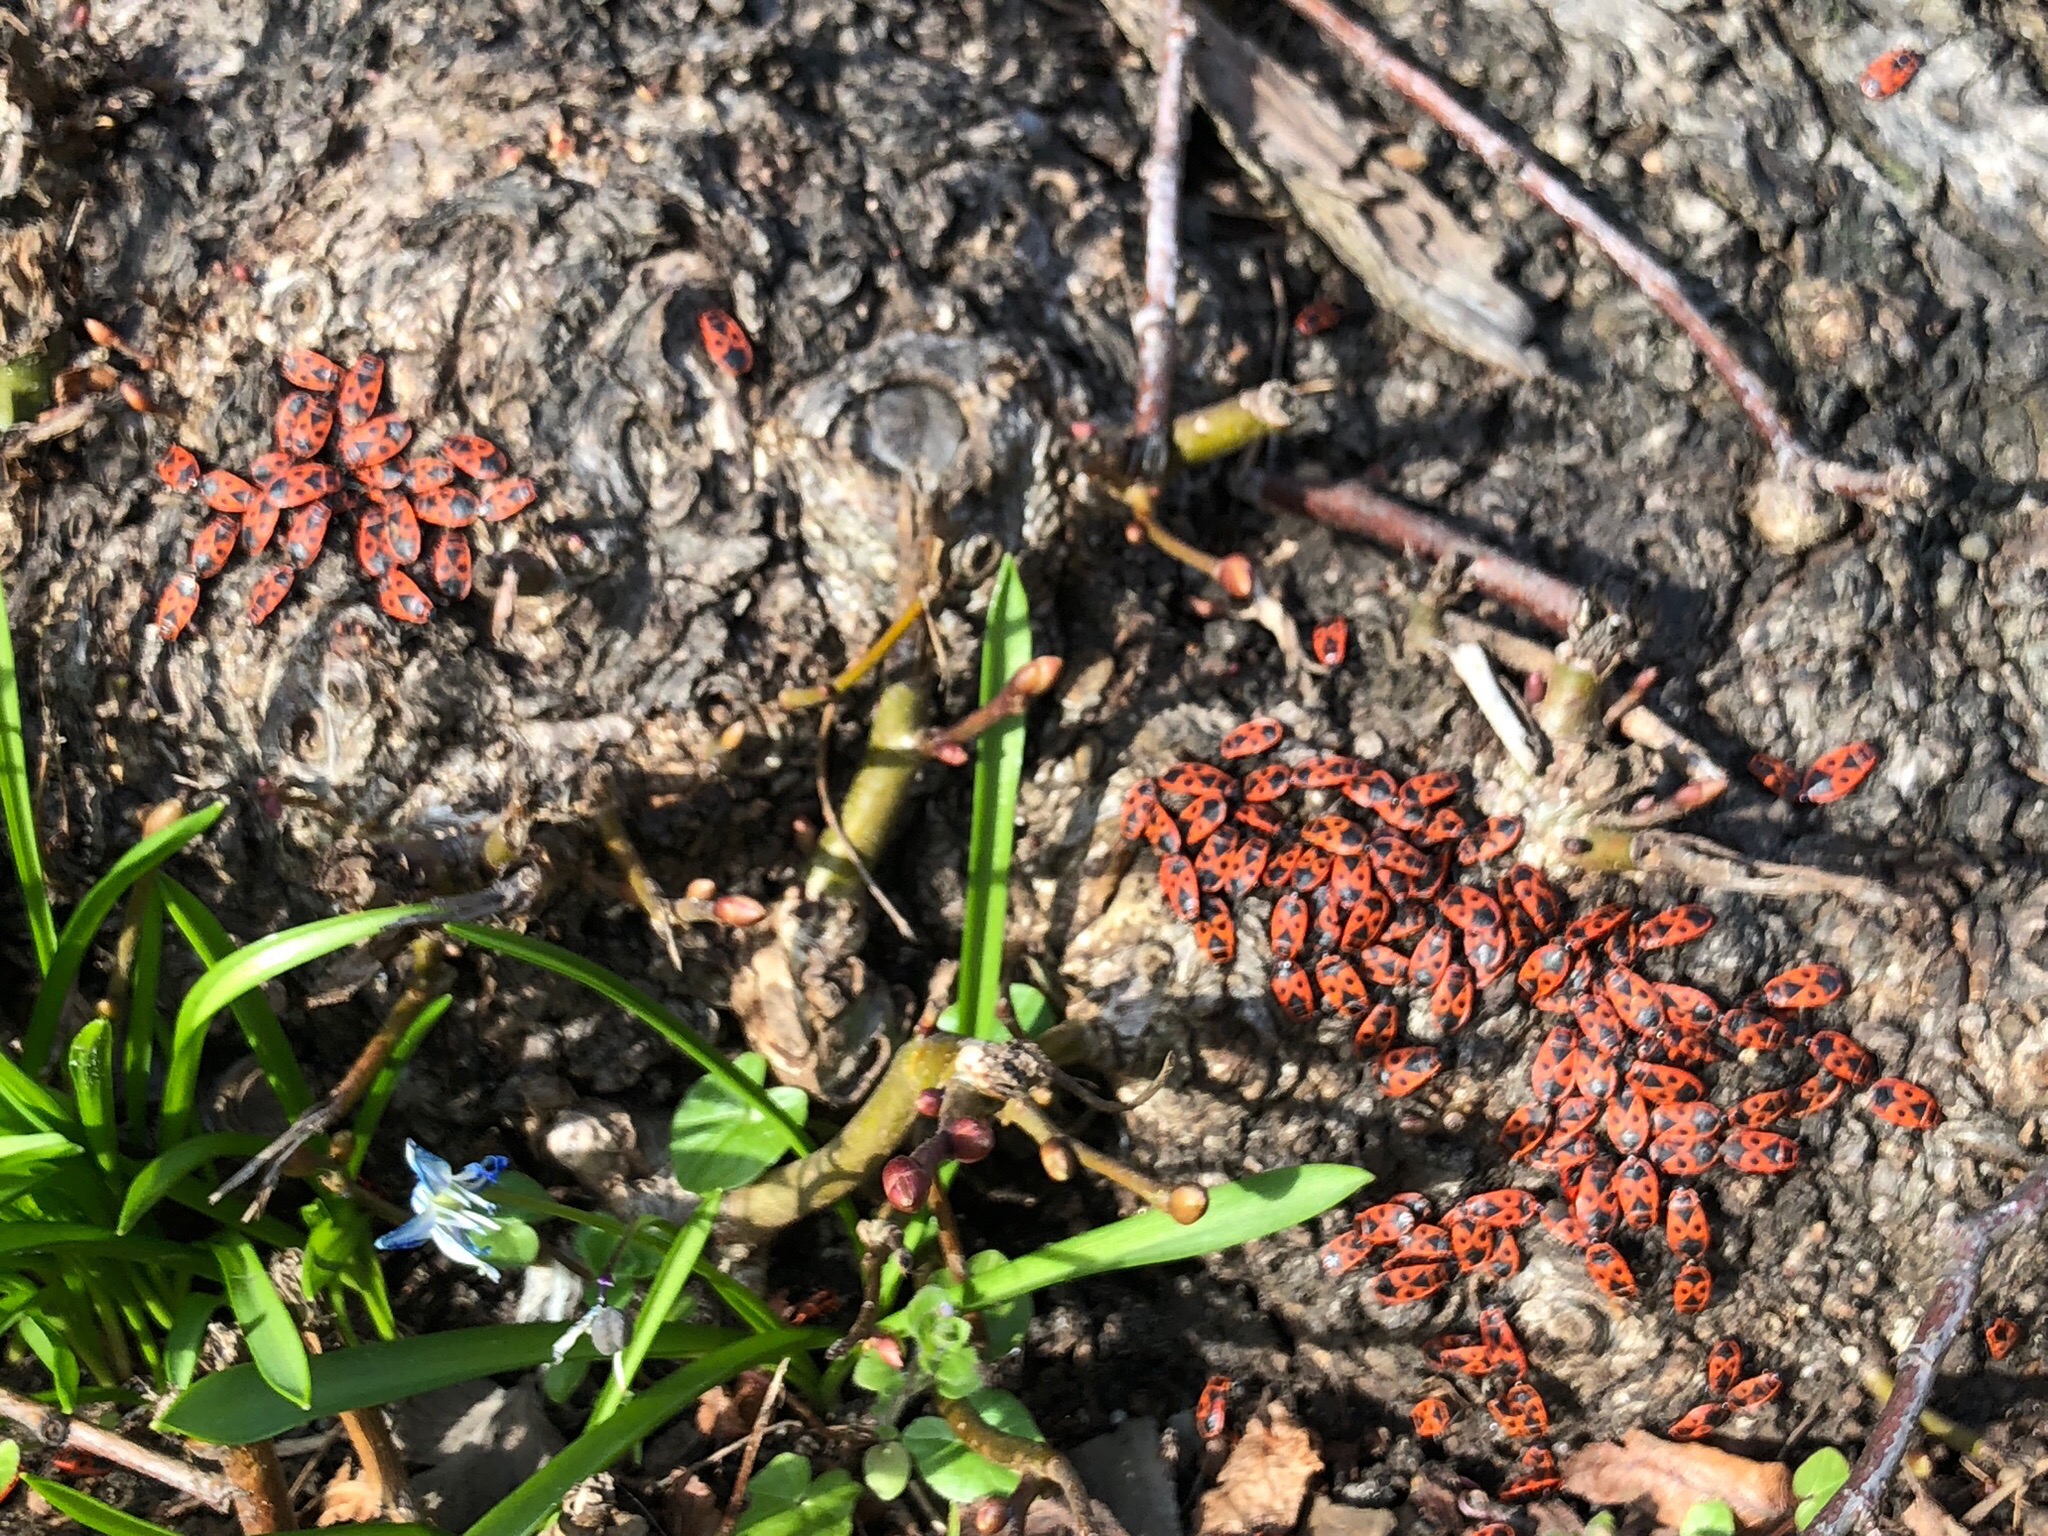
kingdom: Animalia
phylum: Arthropoda
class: Insecta
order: Hemiptera
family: Pyrrhocoridae
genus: Pyrrhocoris
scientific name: Pyrrhocoris apterus
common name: Ildtæge
